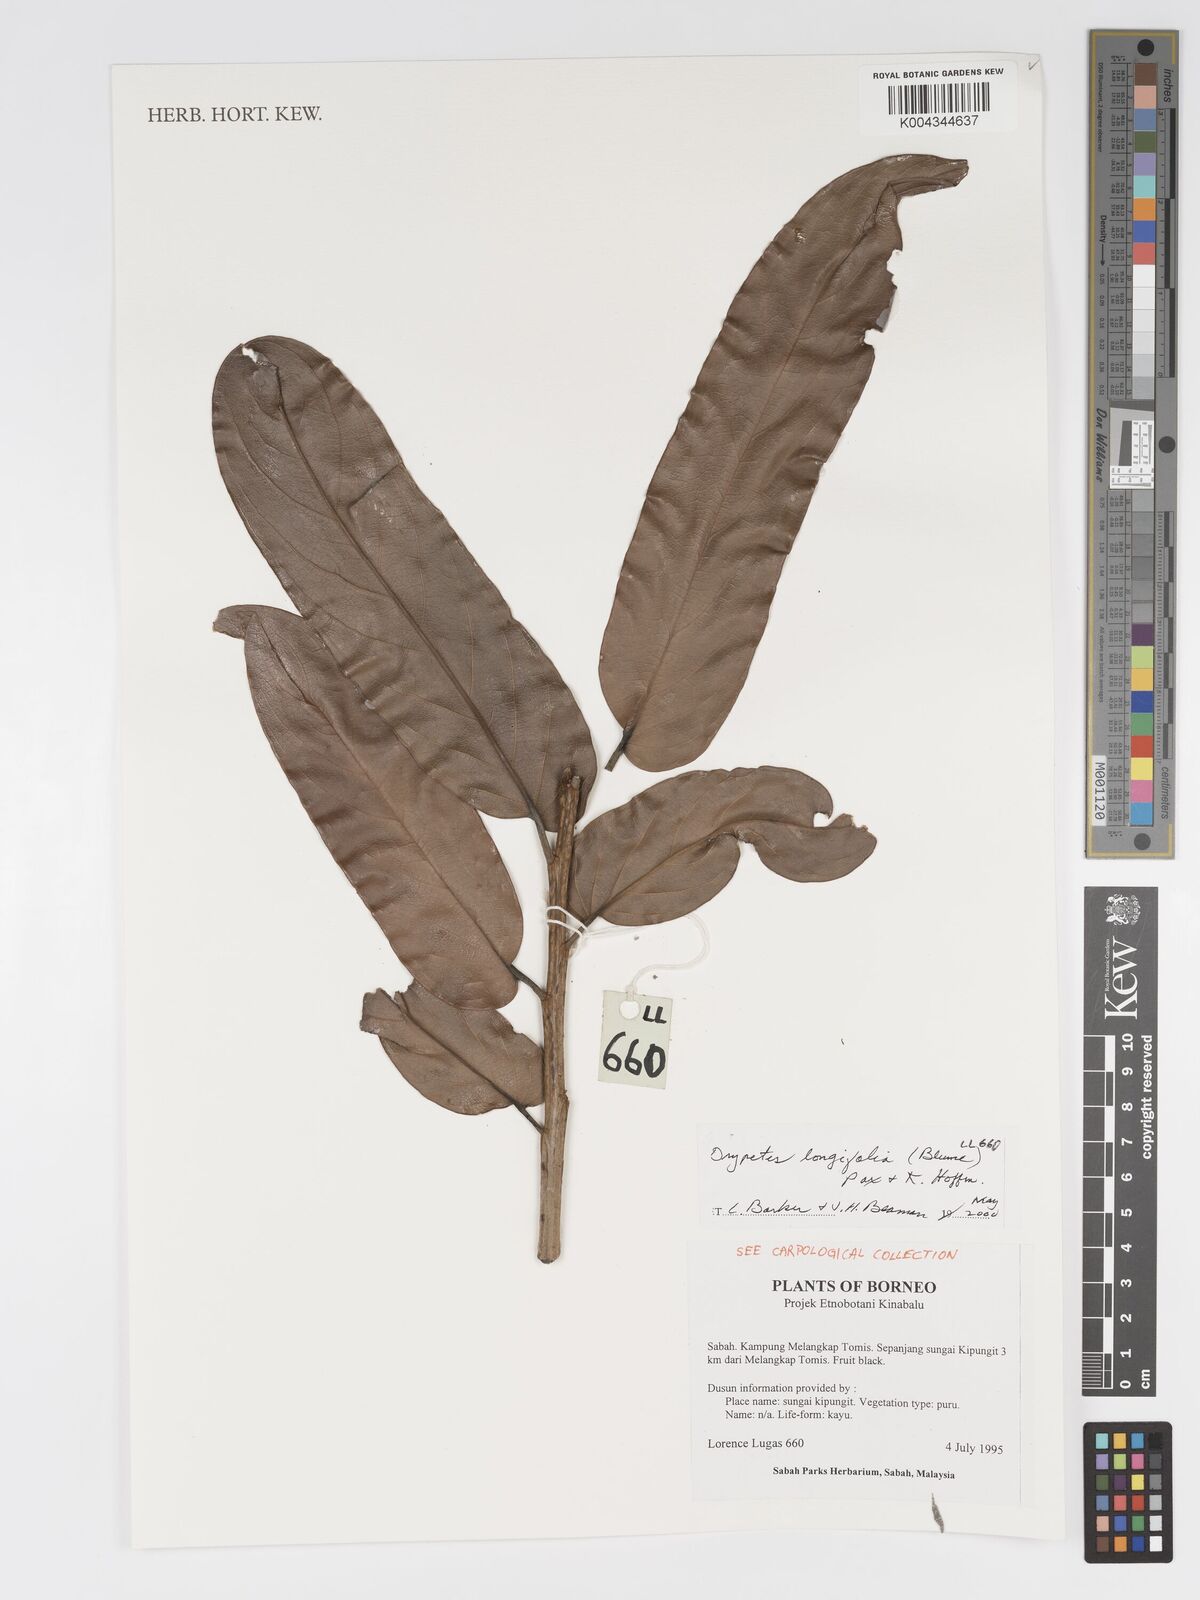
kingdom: Plantae
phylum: Tracheophyta
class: Magnoliopsida
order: Malpighiales
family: Putranjivaceae
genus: Drypetes
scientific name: Drypetes longifolia
